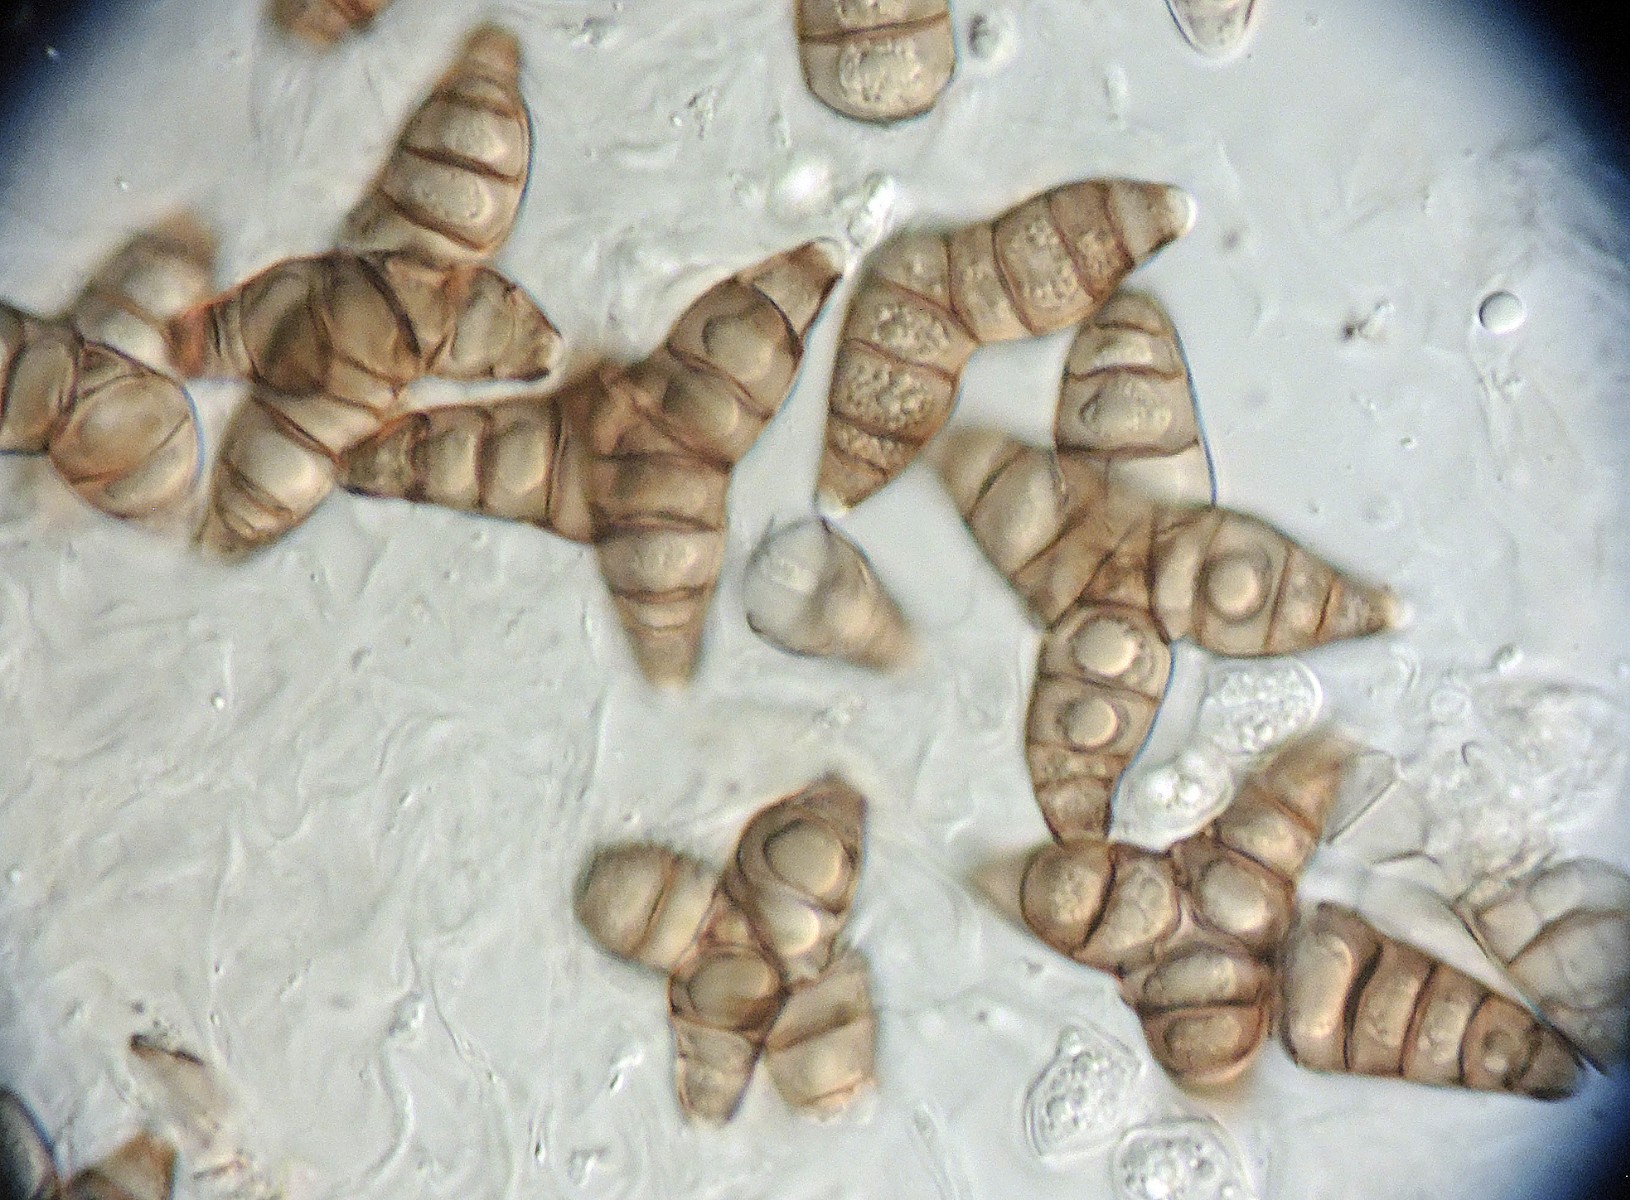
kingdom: Fungi
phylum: Ascomycota
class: Sordariomycetes
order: Diaporthales
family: Asterosporiaceae
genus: Asterosporium
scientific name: Asterosporium asterospermum
